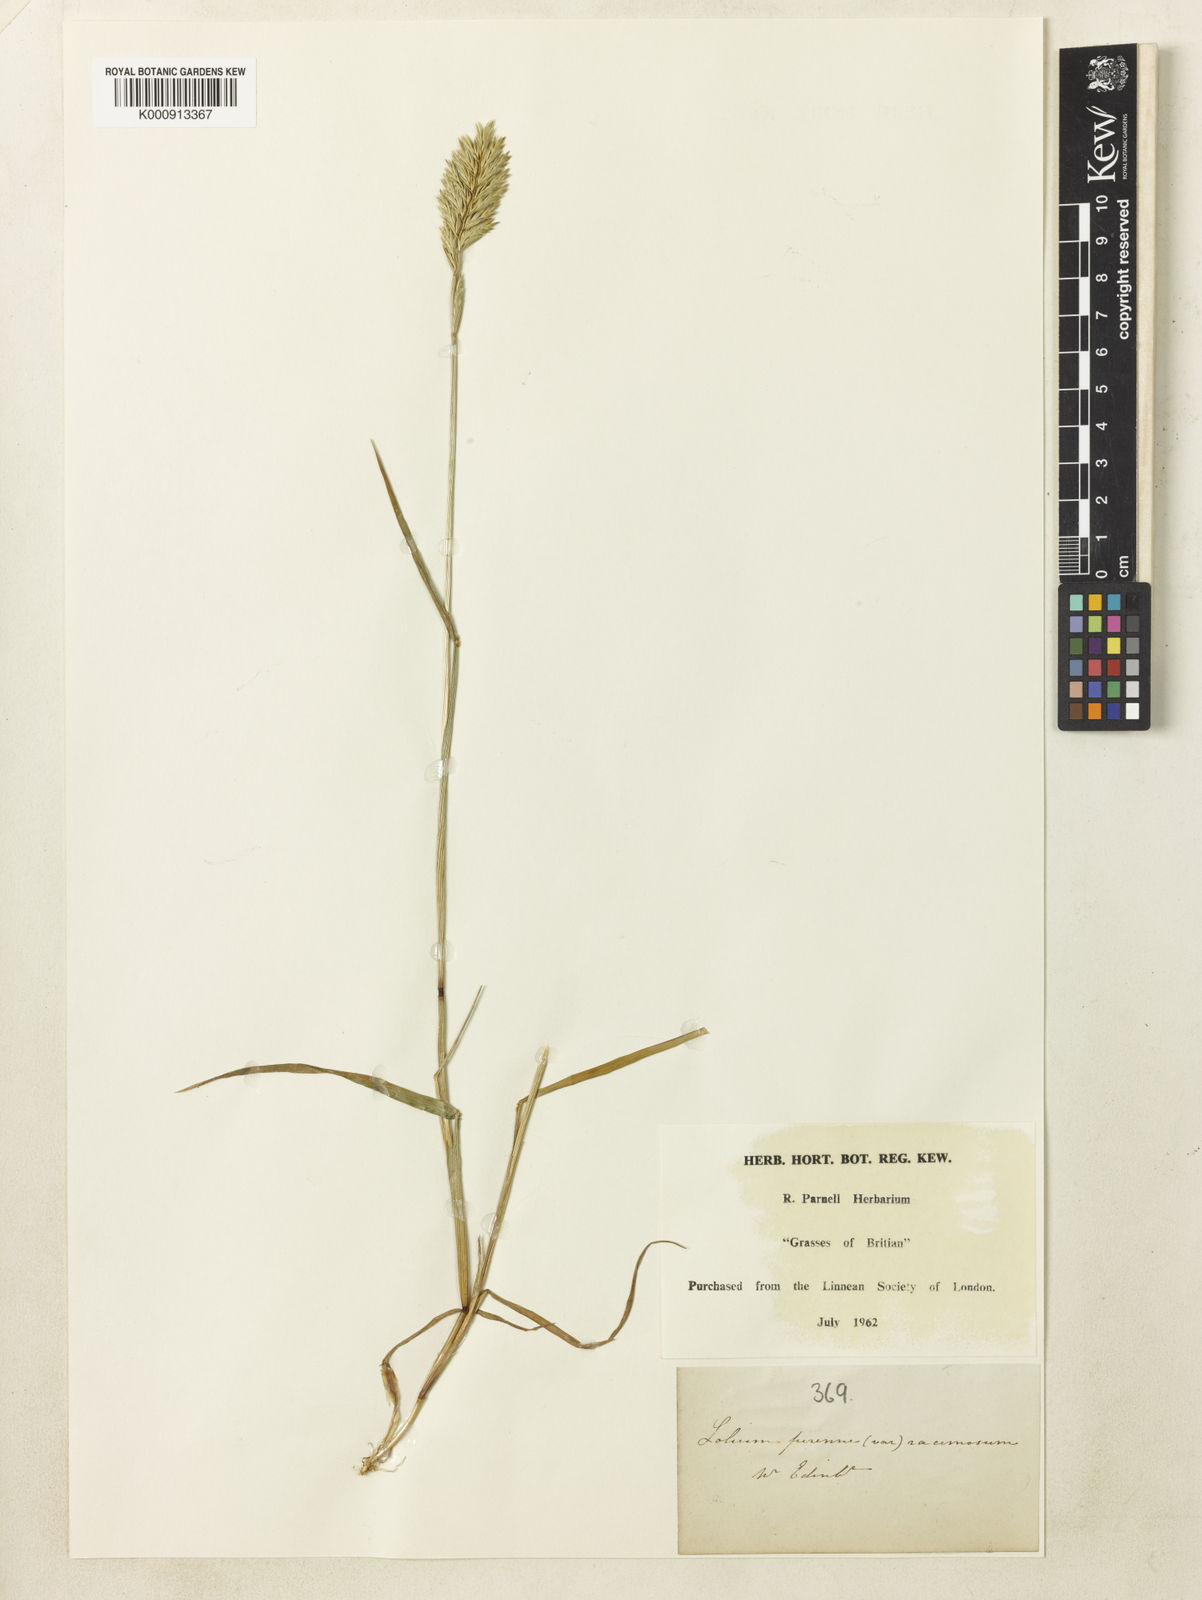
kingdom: Plantae
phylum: Tracheophyta
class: Liliopsida
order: Poales
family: Poaceae
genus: Lolium
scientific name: Lolium perenne
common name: Perennial ryegrass
